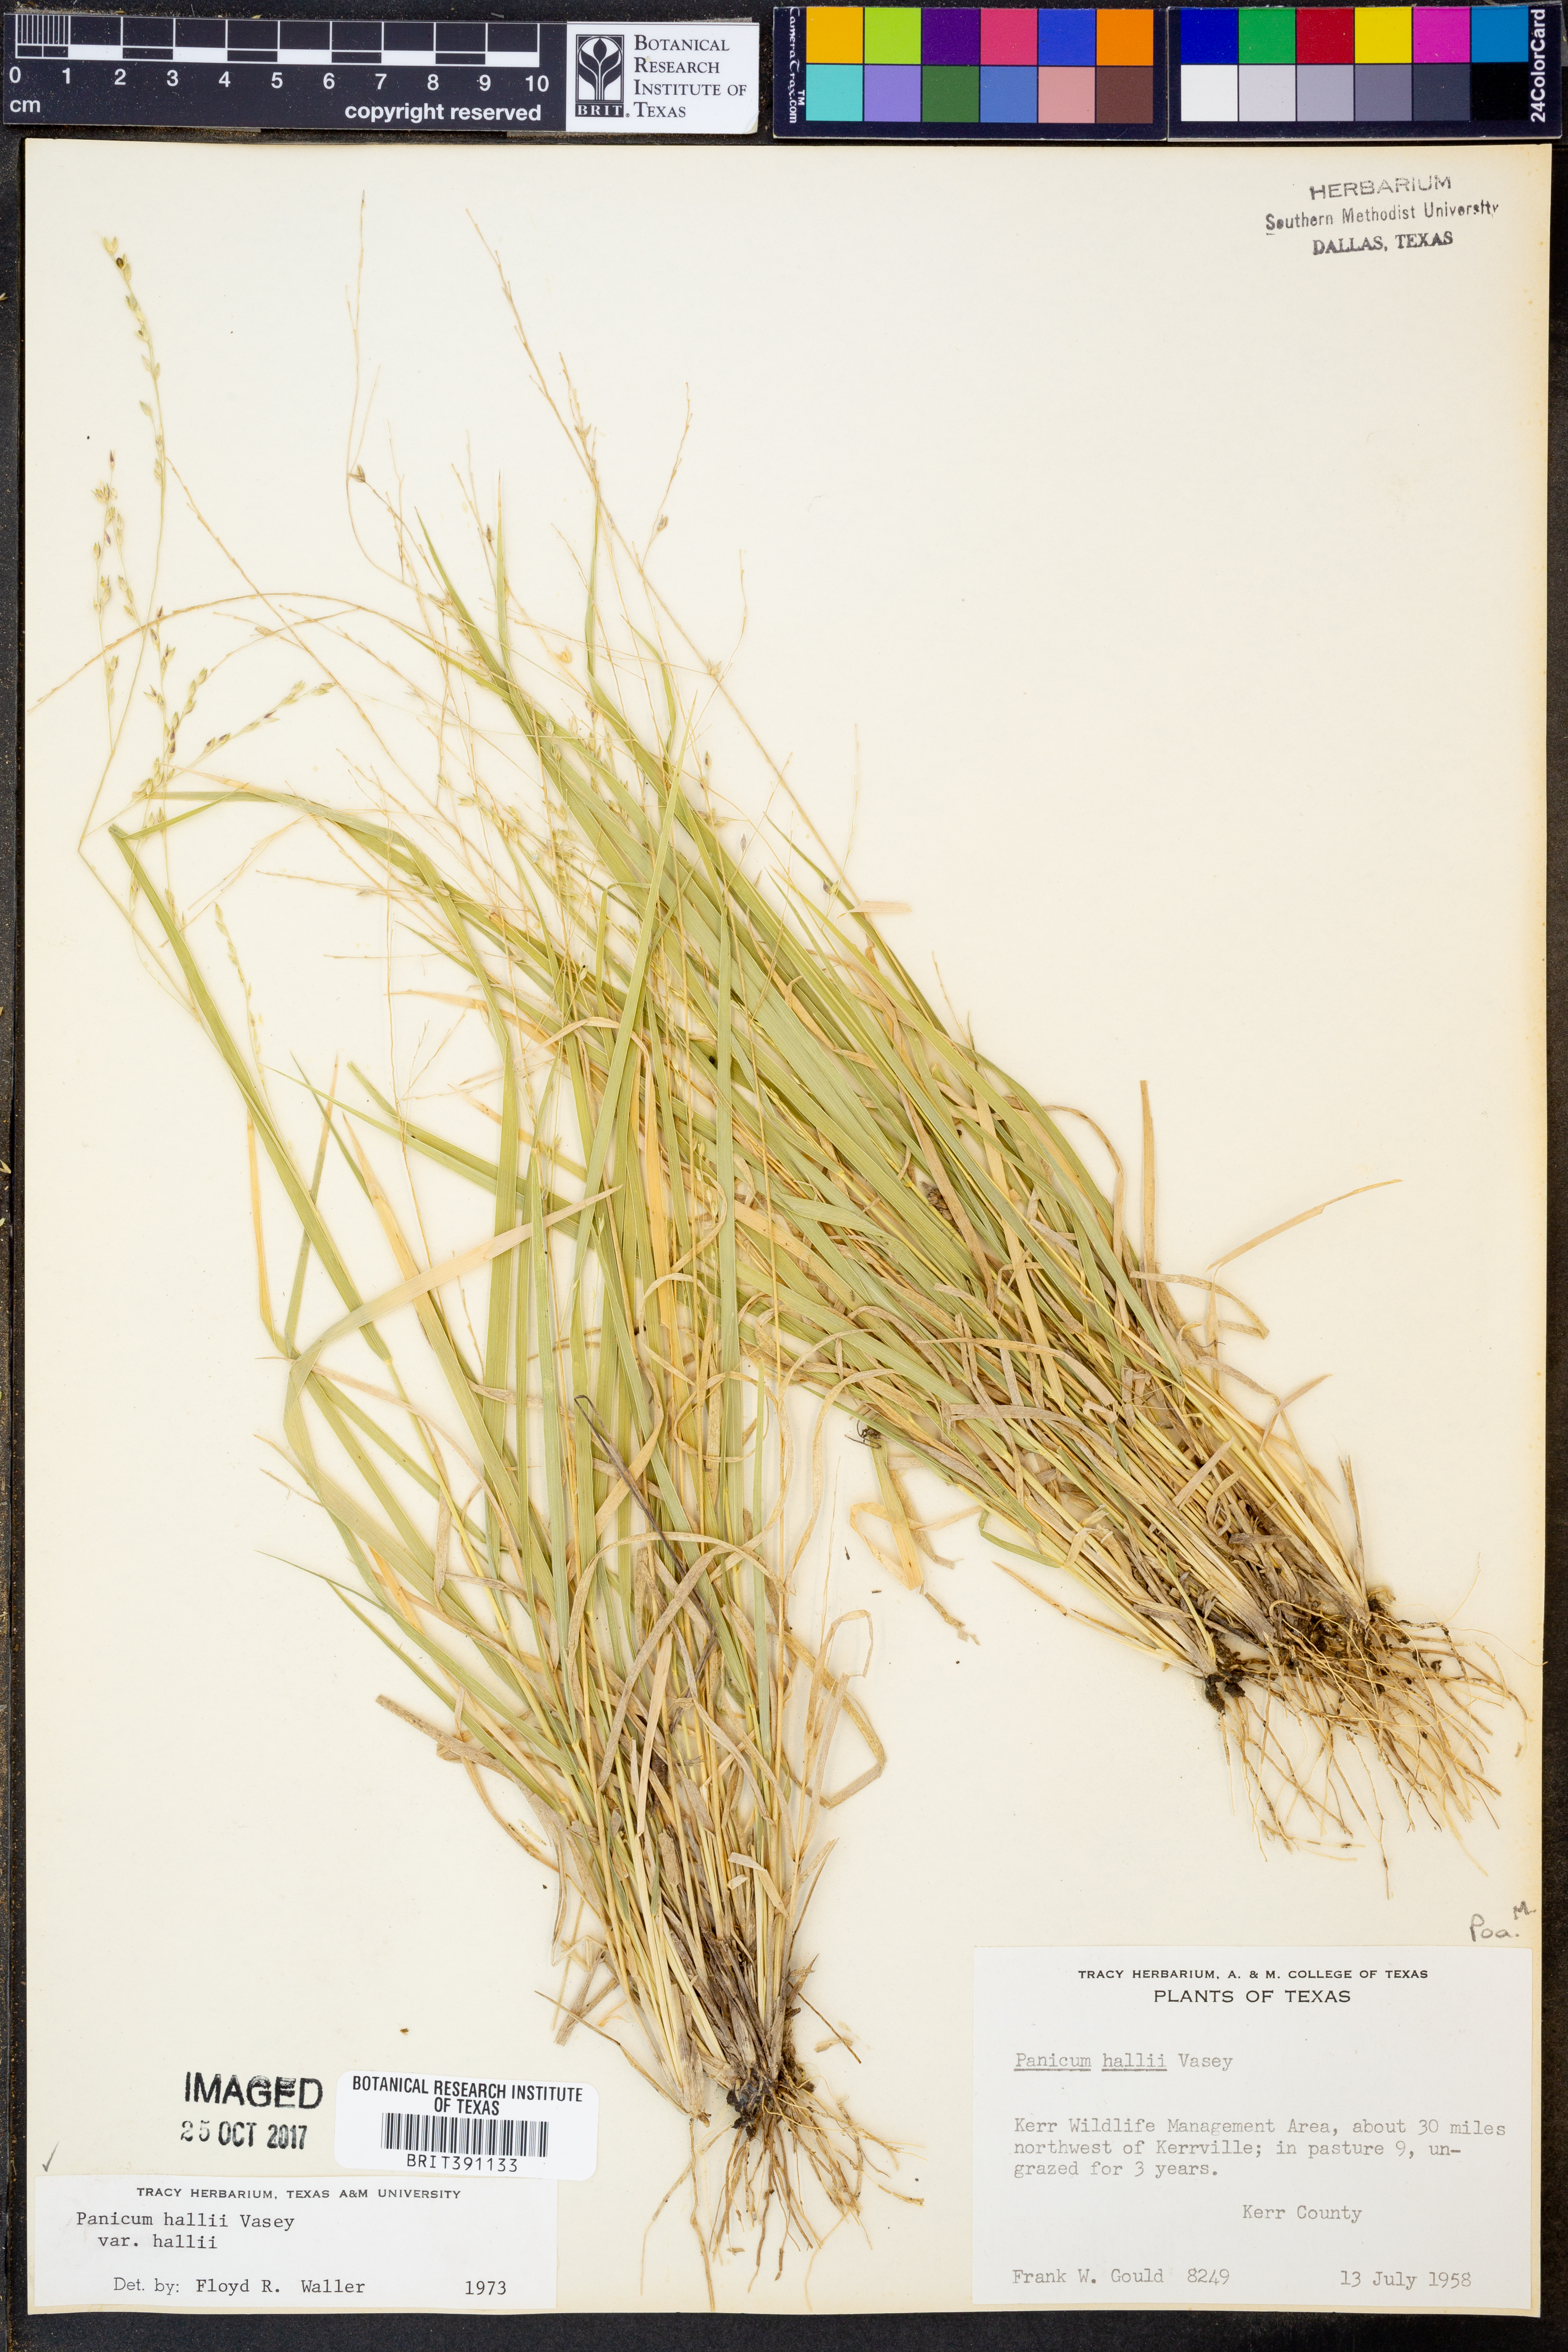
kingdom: Plantae
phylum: Tracheophyta
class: Liliopsida
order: Poales
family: Poaceae
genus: Panicum
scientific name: Panicum hallii
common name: Hall's witchgrass
